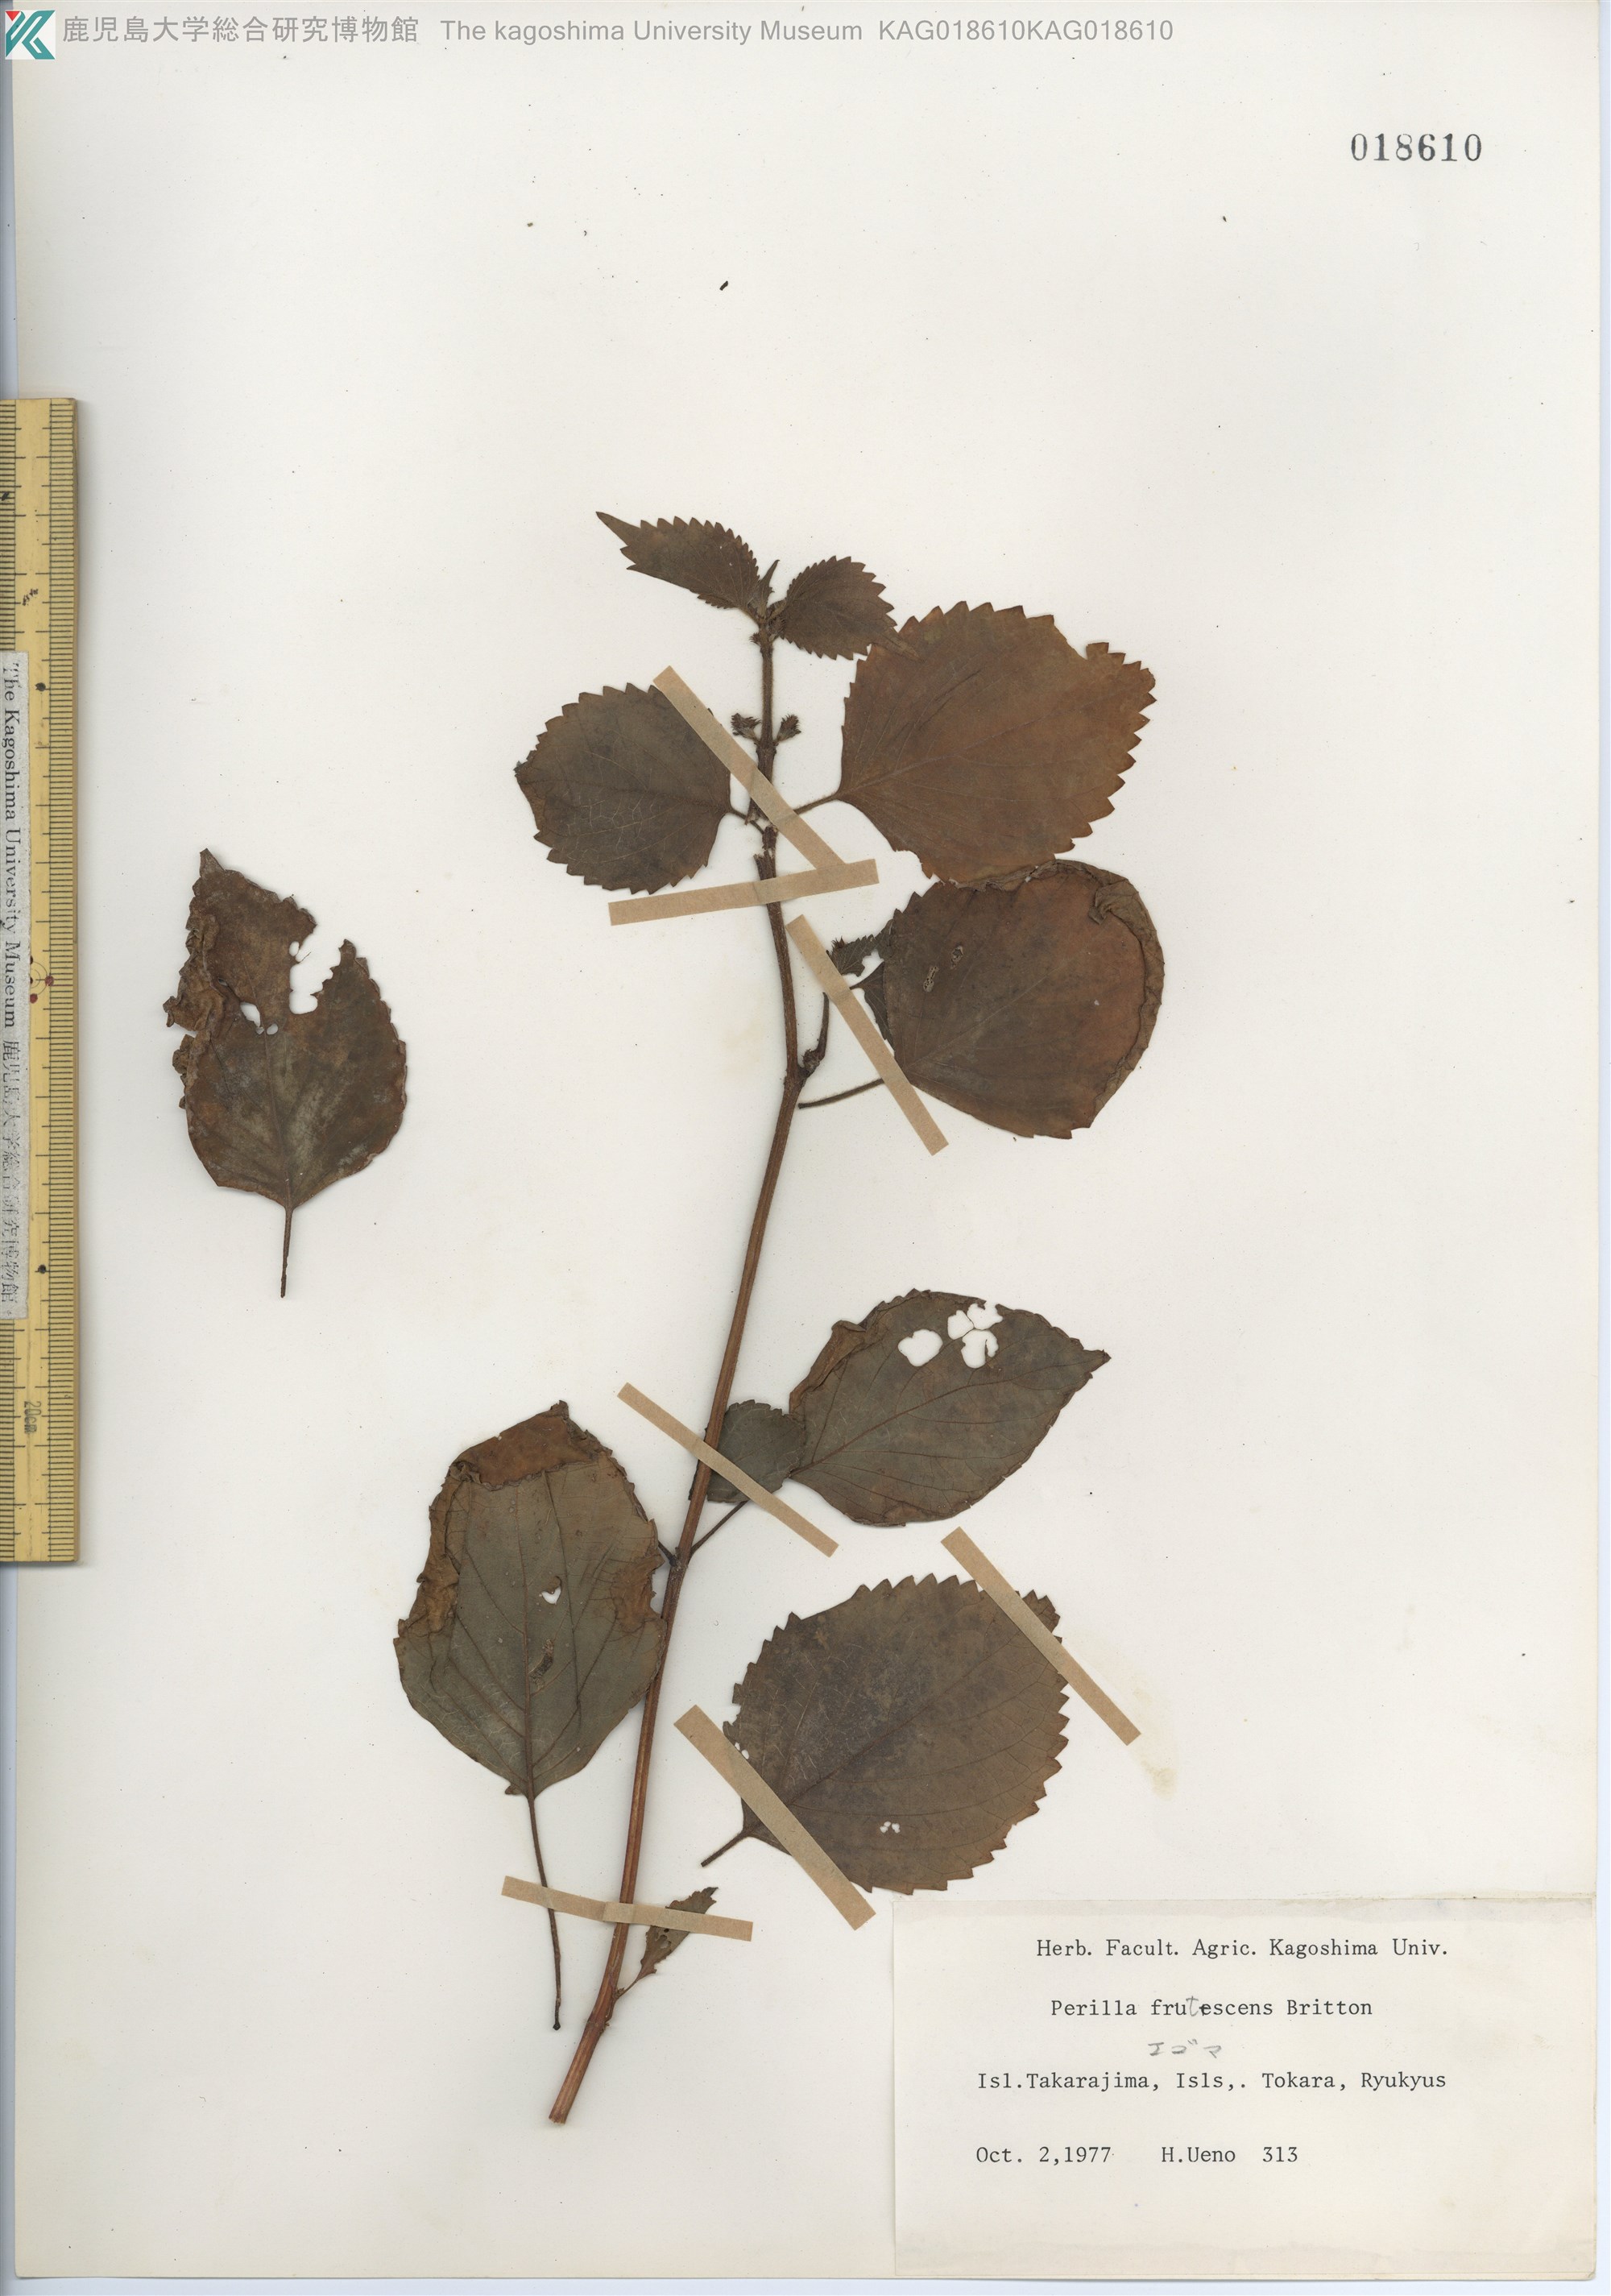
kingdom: Plantae
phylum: Tracheophyta
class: Magnoliopsida
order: Lamiales
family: Lamiaceae
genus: Perilla
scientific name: Perilla frutescens
